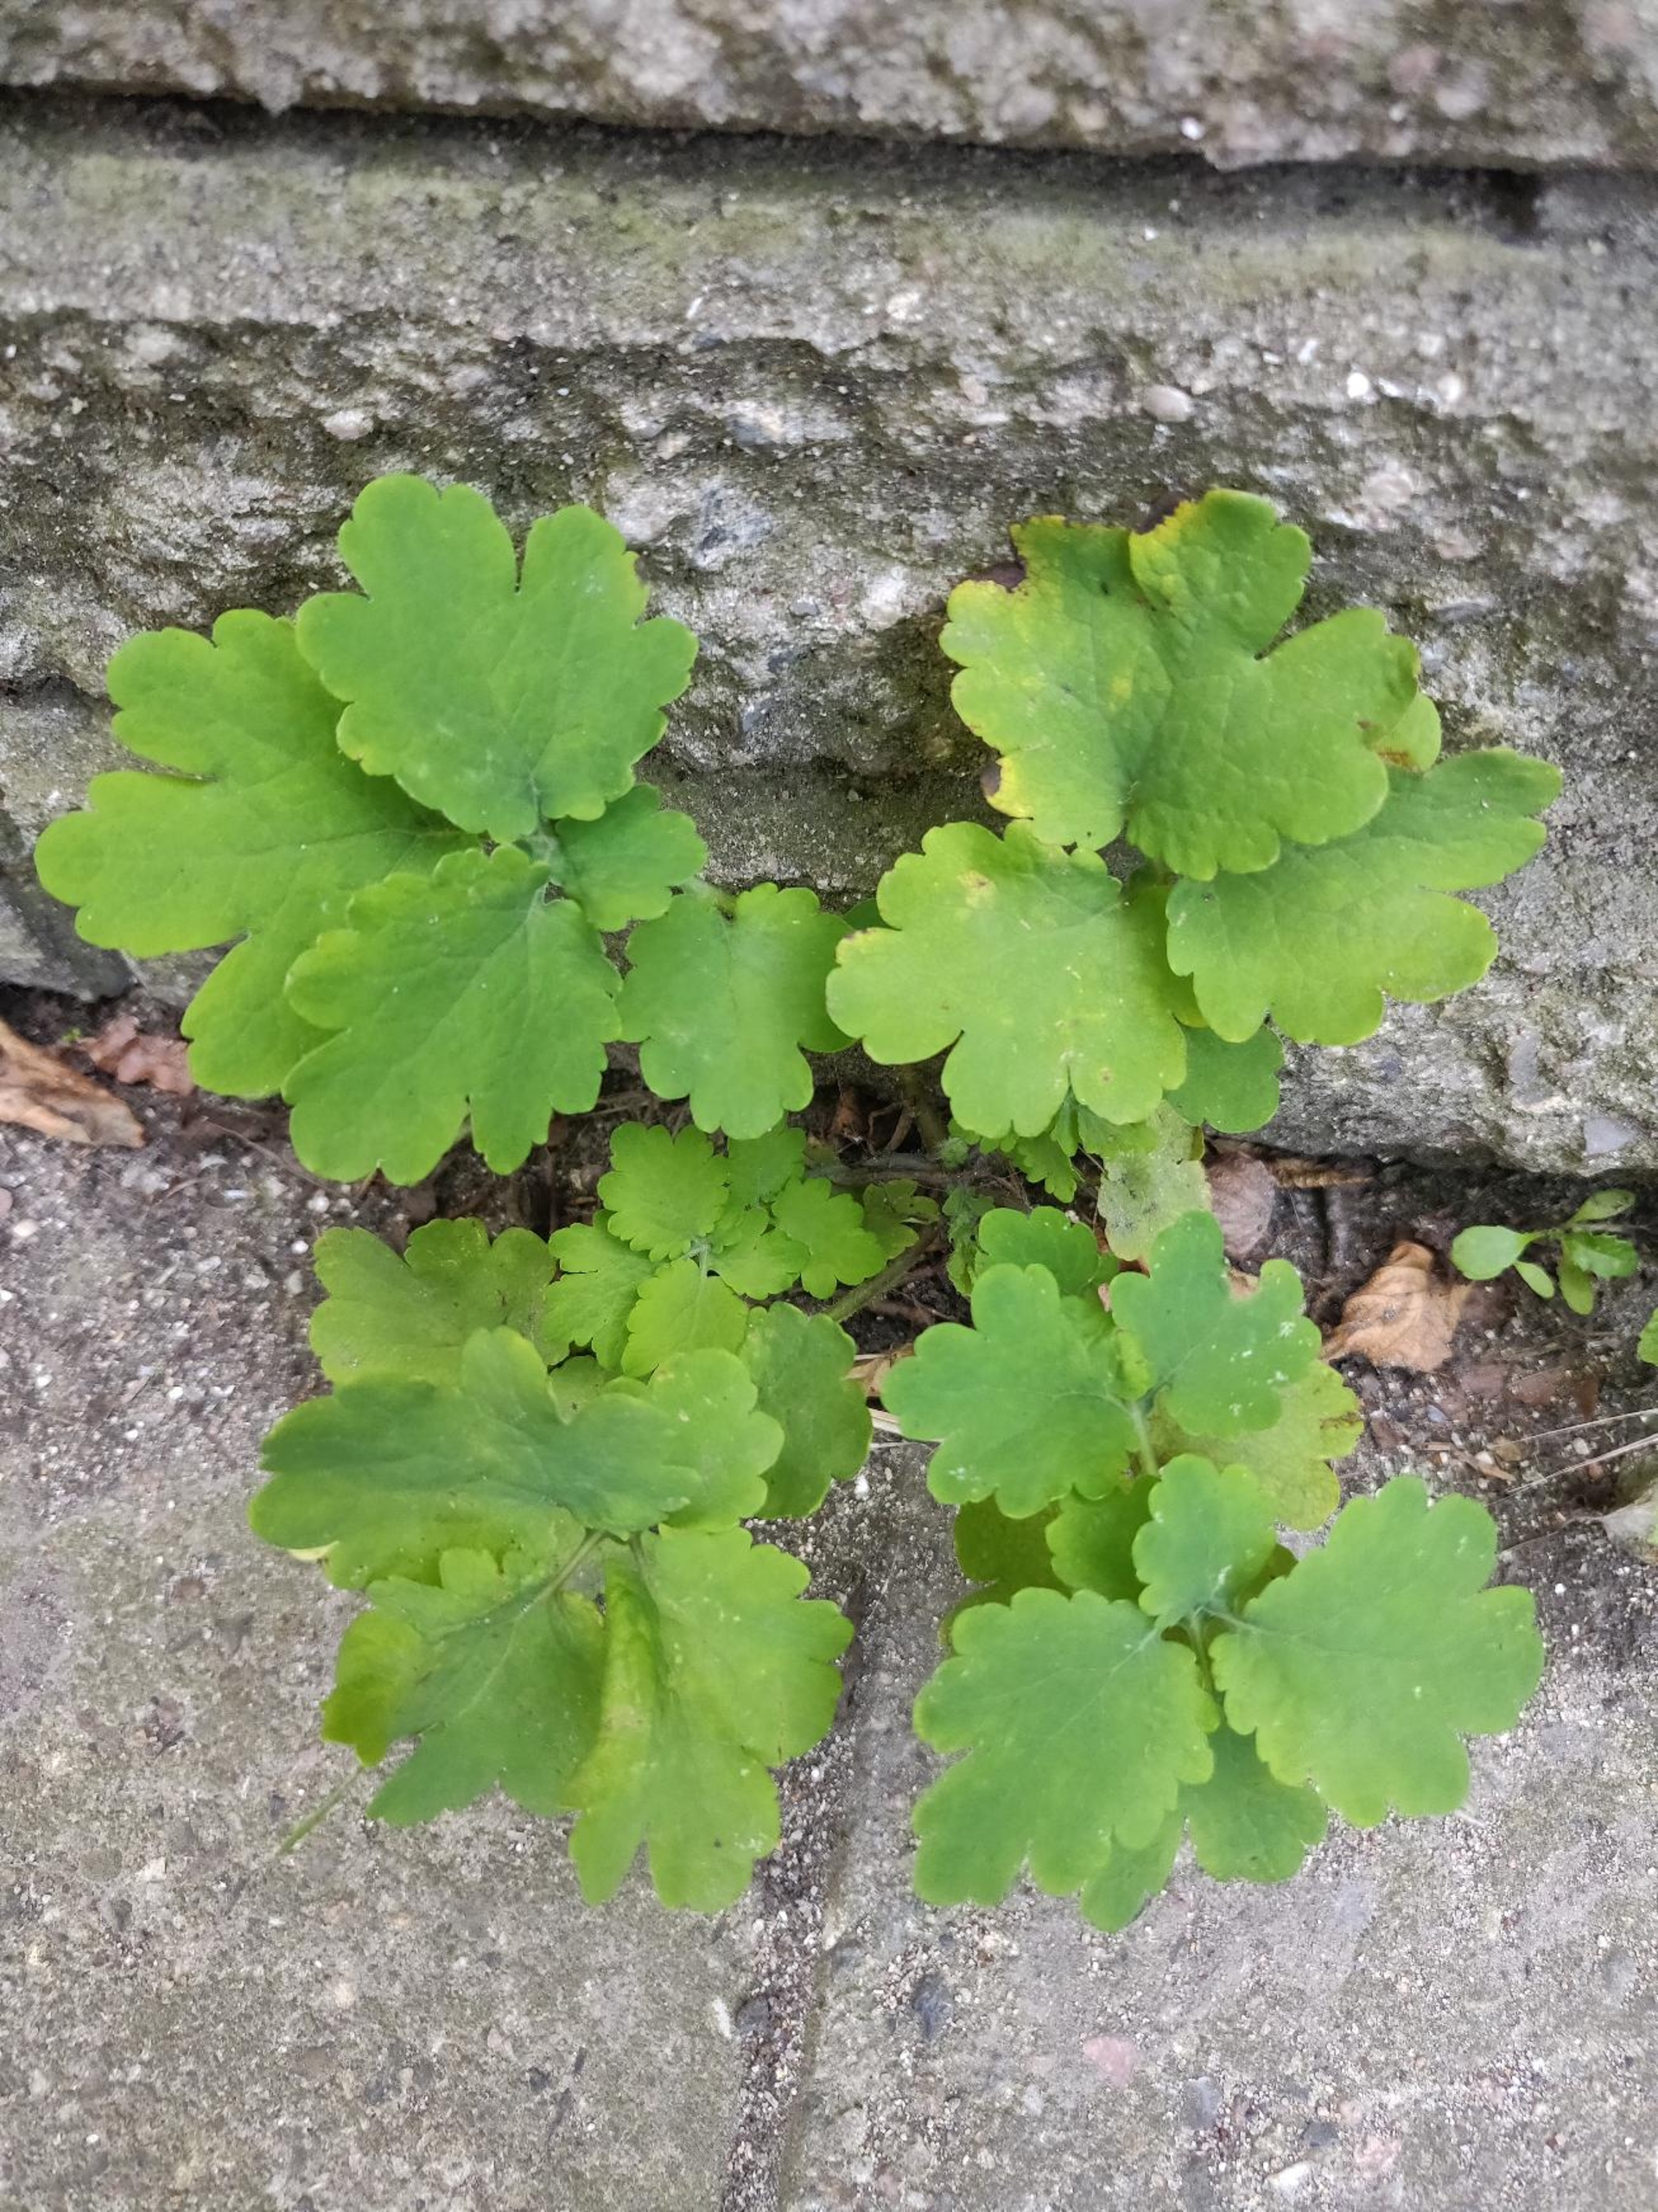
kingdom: Plantae
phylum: Tracheophyta
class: Magnoliopsida
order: Ranunculales
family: Papaveraceae
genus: Chelidonium
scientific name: Chelidonium majus
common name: Svaleurt
